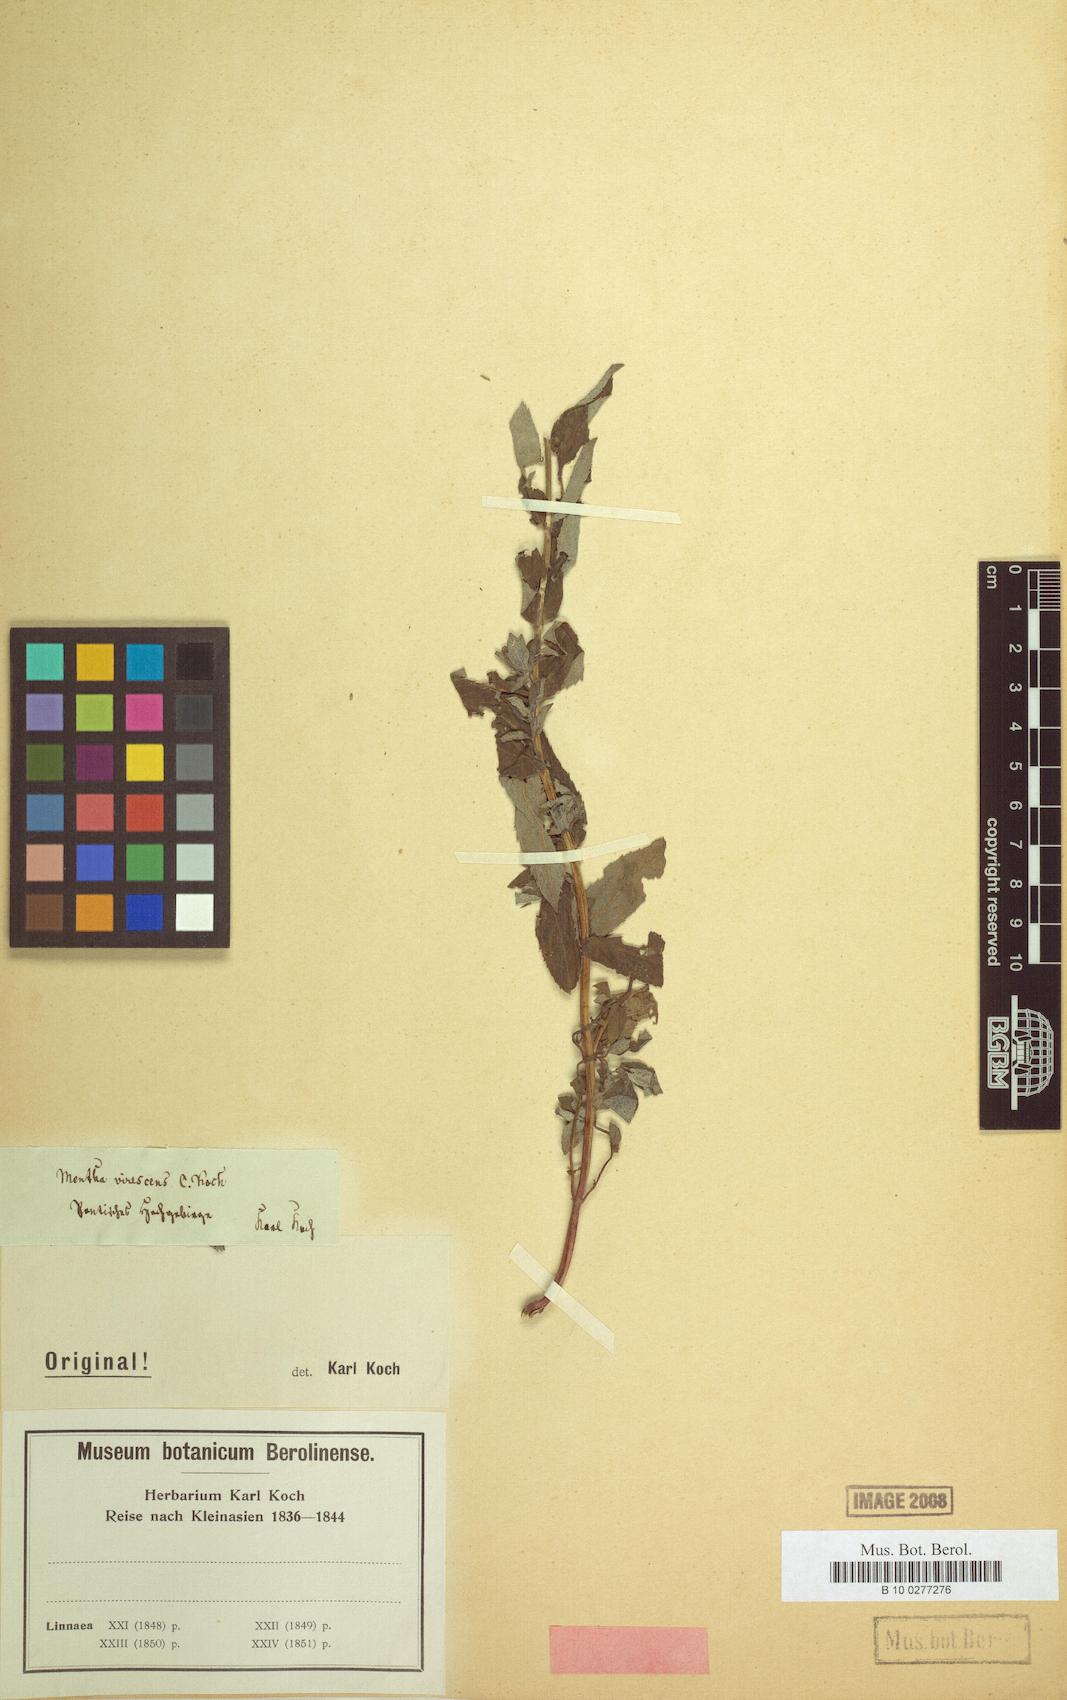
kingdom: Plantae
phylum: Tracheophyta
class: Magnoliopsida
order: Lamiales
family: Lamiaceae
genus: Mentha
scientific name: Mentha virescens
